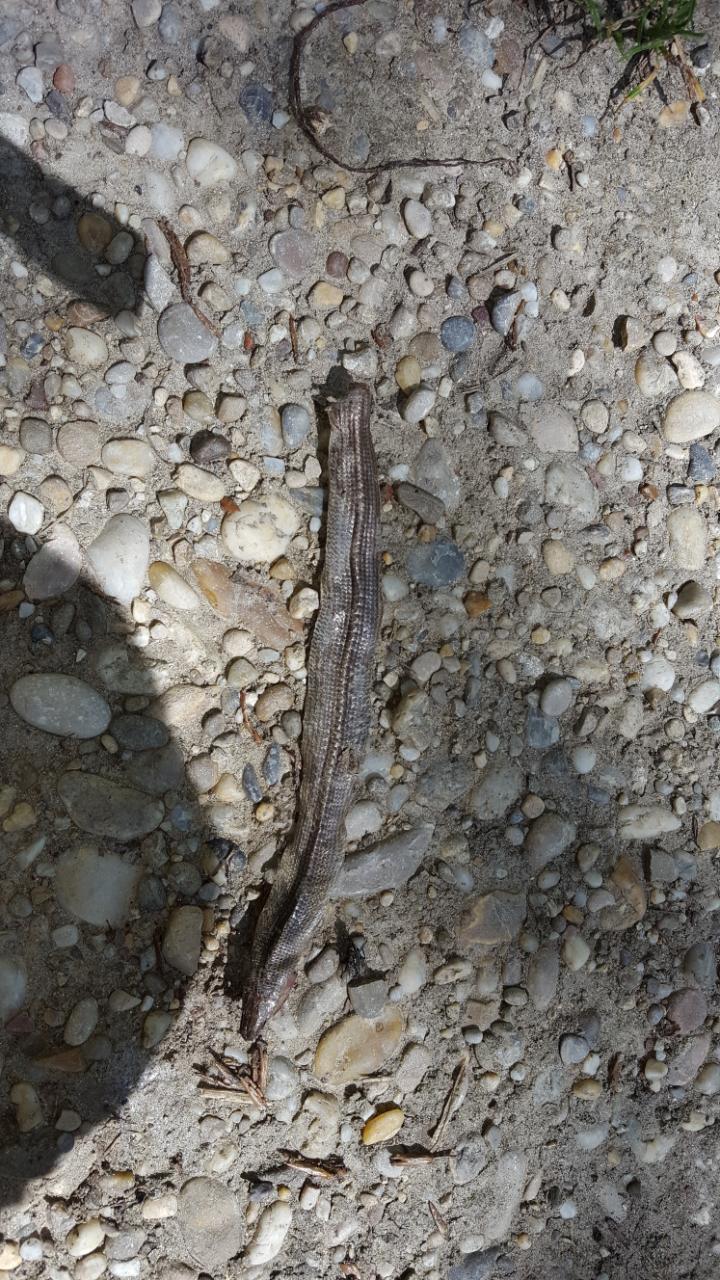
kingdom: Animalia
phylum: Chordata
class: Squamata
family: Anguidae
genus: Anguis
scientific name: Anguis fragilis
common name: Slow worm
